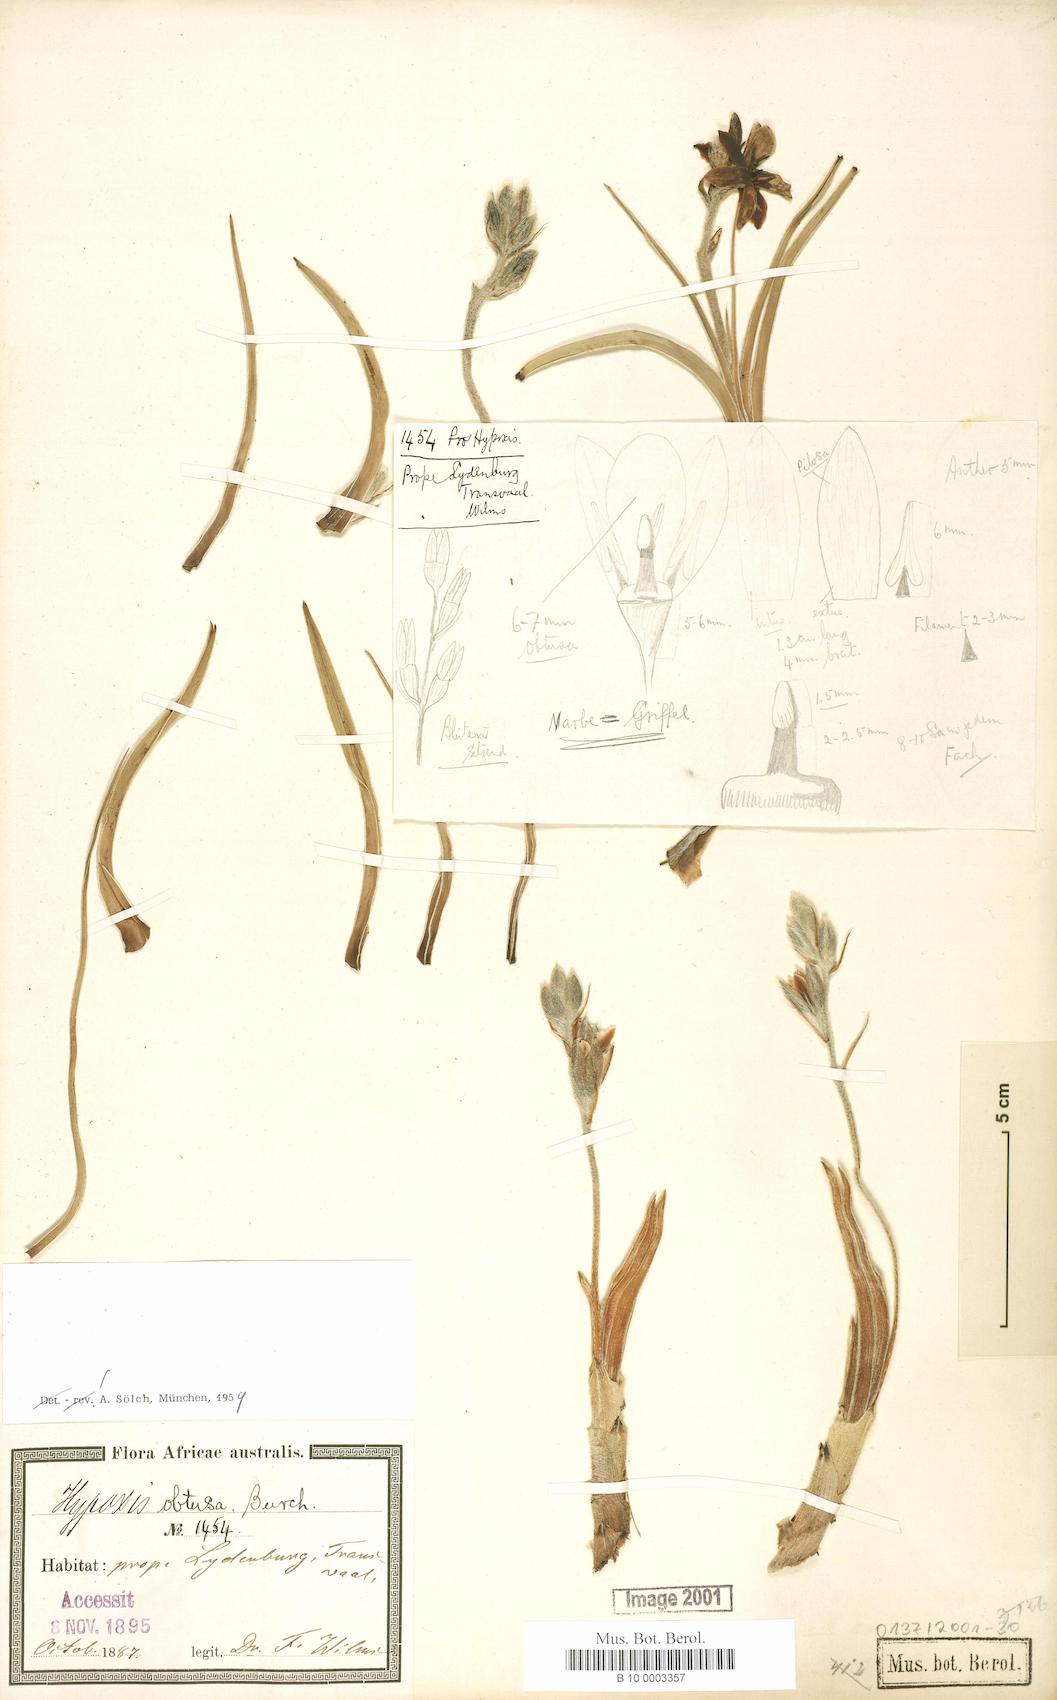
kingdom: Plantae
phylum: Tracheophyta
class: Liliopsida
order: Asparagales
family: Hypoxidaceae
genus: Hypoxis
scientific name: Hypoxis obtusa
